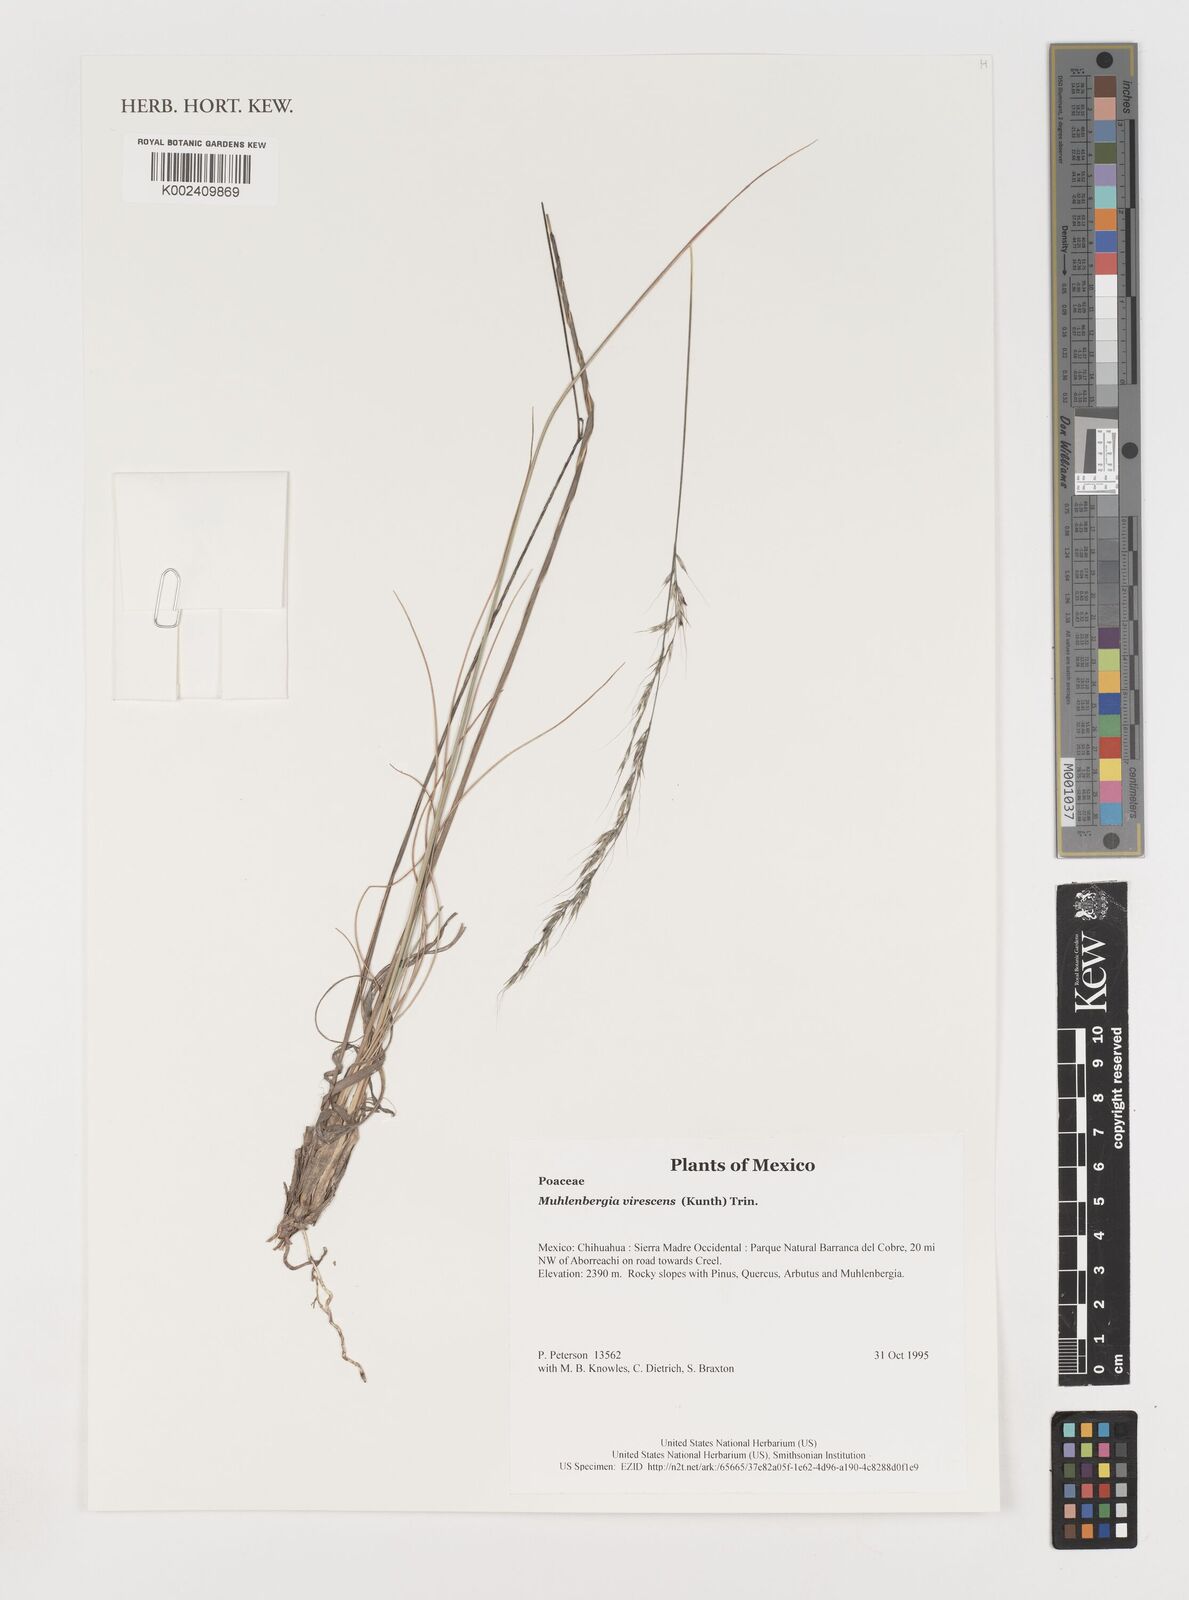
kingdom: Plantae
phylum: Tracheophyta
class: Liliopsida
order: Poales
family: Poaceae
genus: Muhlenbergia
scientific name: Muhlenbergia virescens
